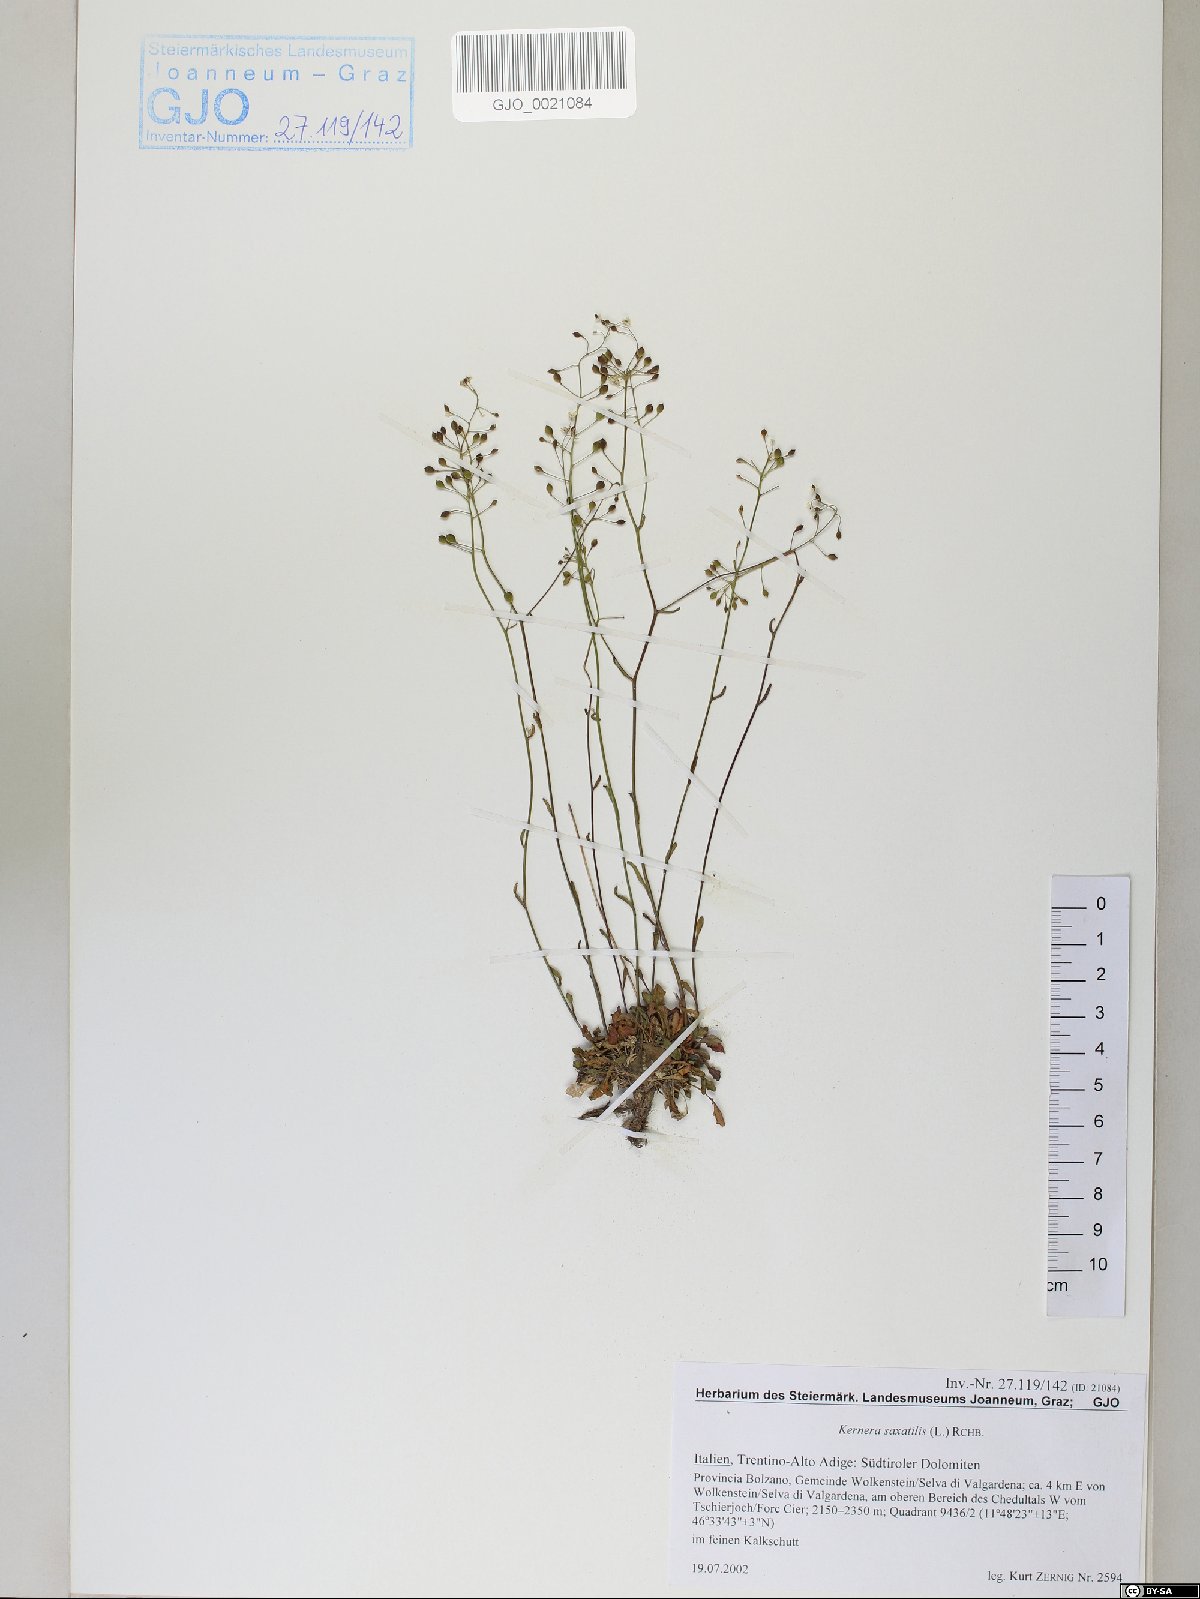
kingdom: Plantae
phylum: Tracheophyta
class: Magnoliopsida
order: Brassicales
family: Brassicaceae
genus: Kernera
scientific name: Kernera saxatilis
